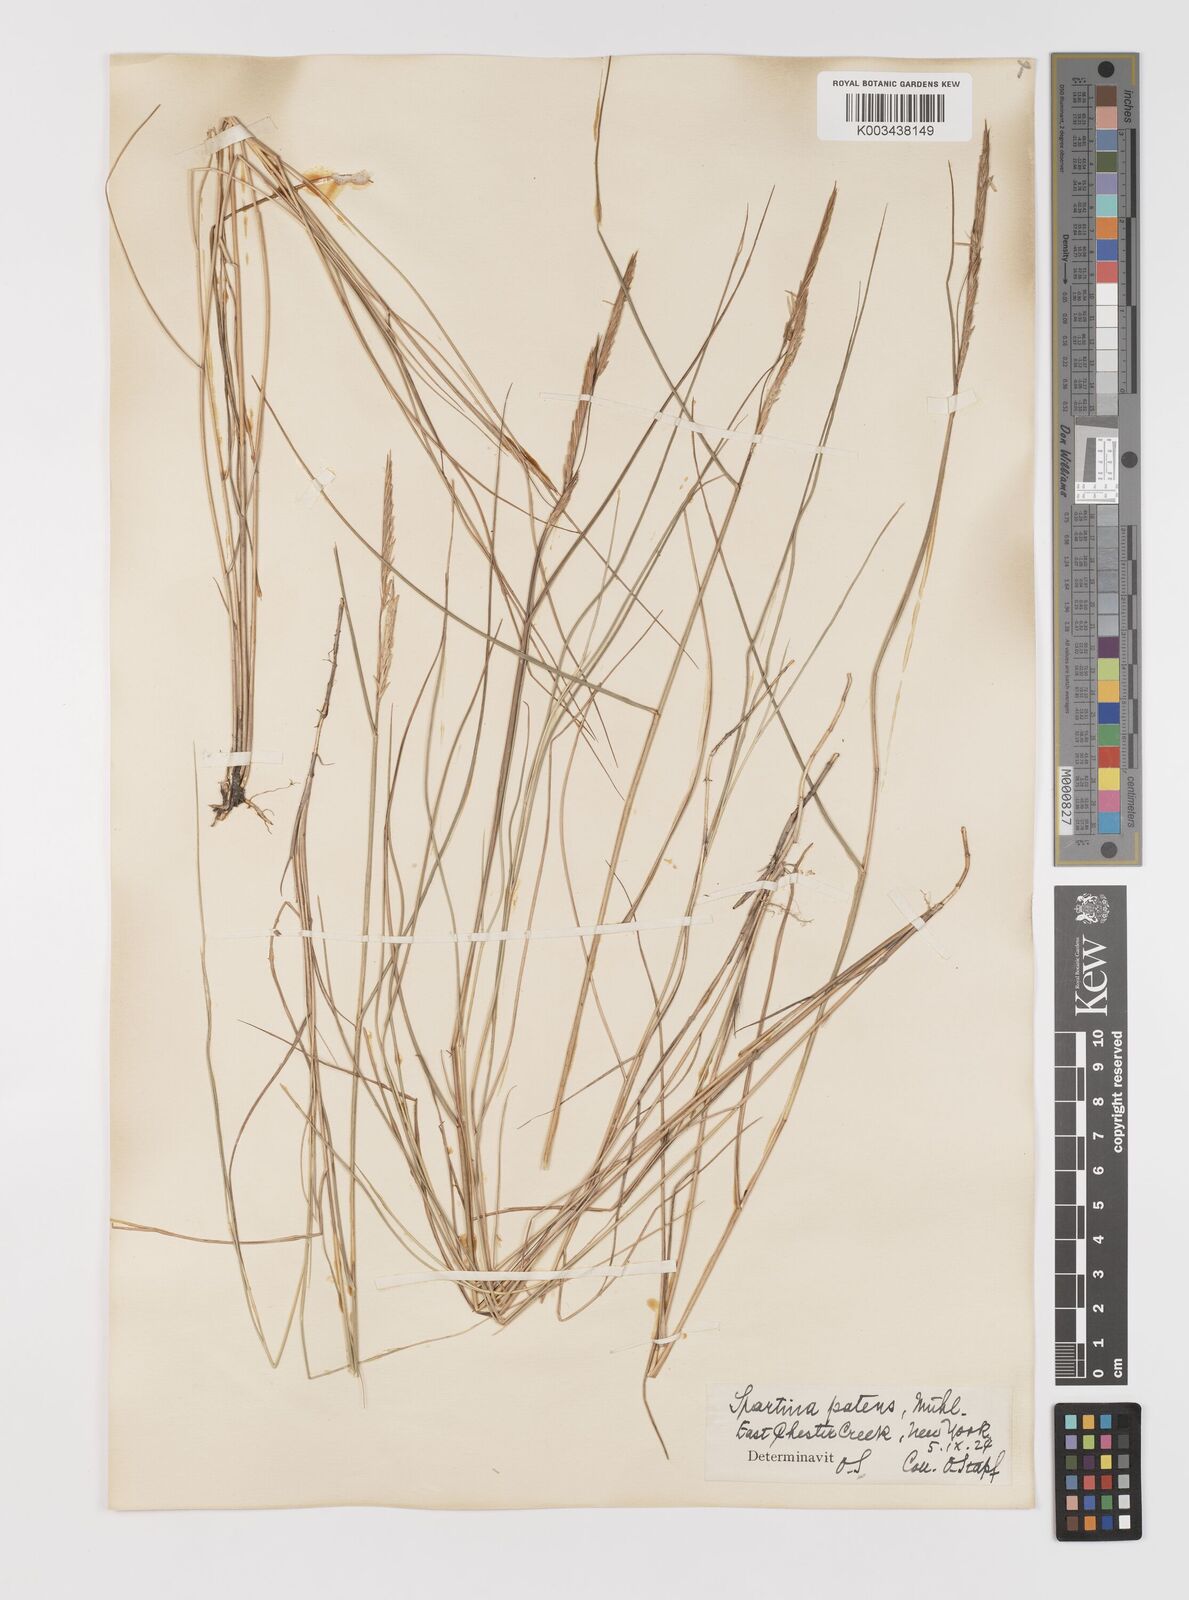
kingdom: Plantae
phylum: Tracheophyta
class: Liliopsida
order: Poales
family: Poaceae
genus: Sporobolus
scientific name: Sporobolus pumilus
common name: Highwater grass
